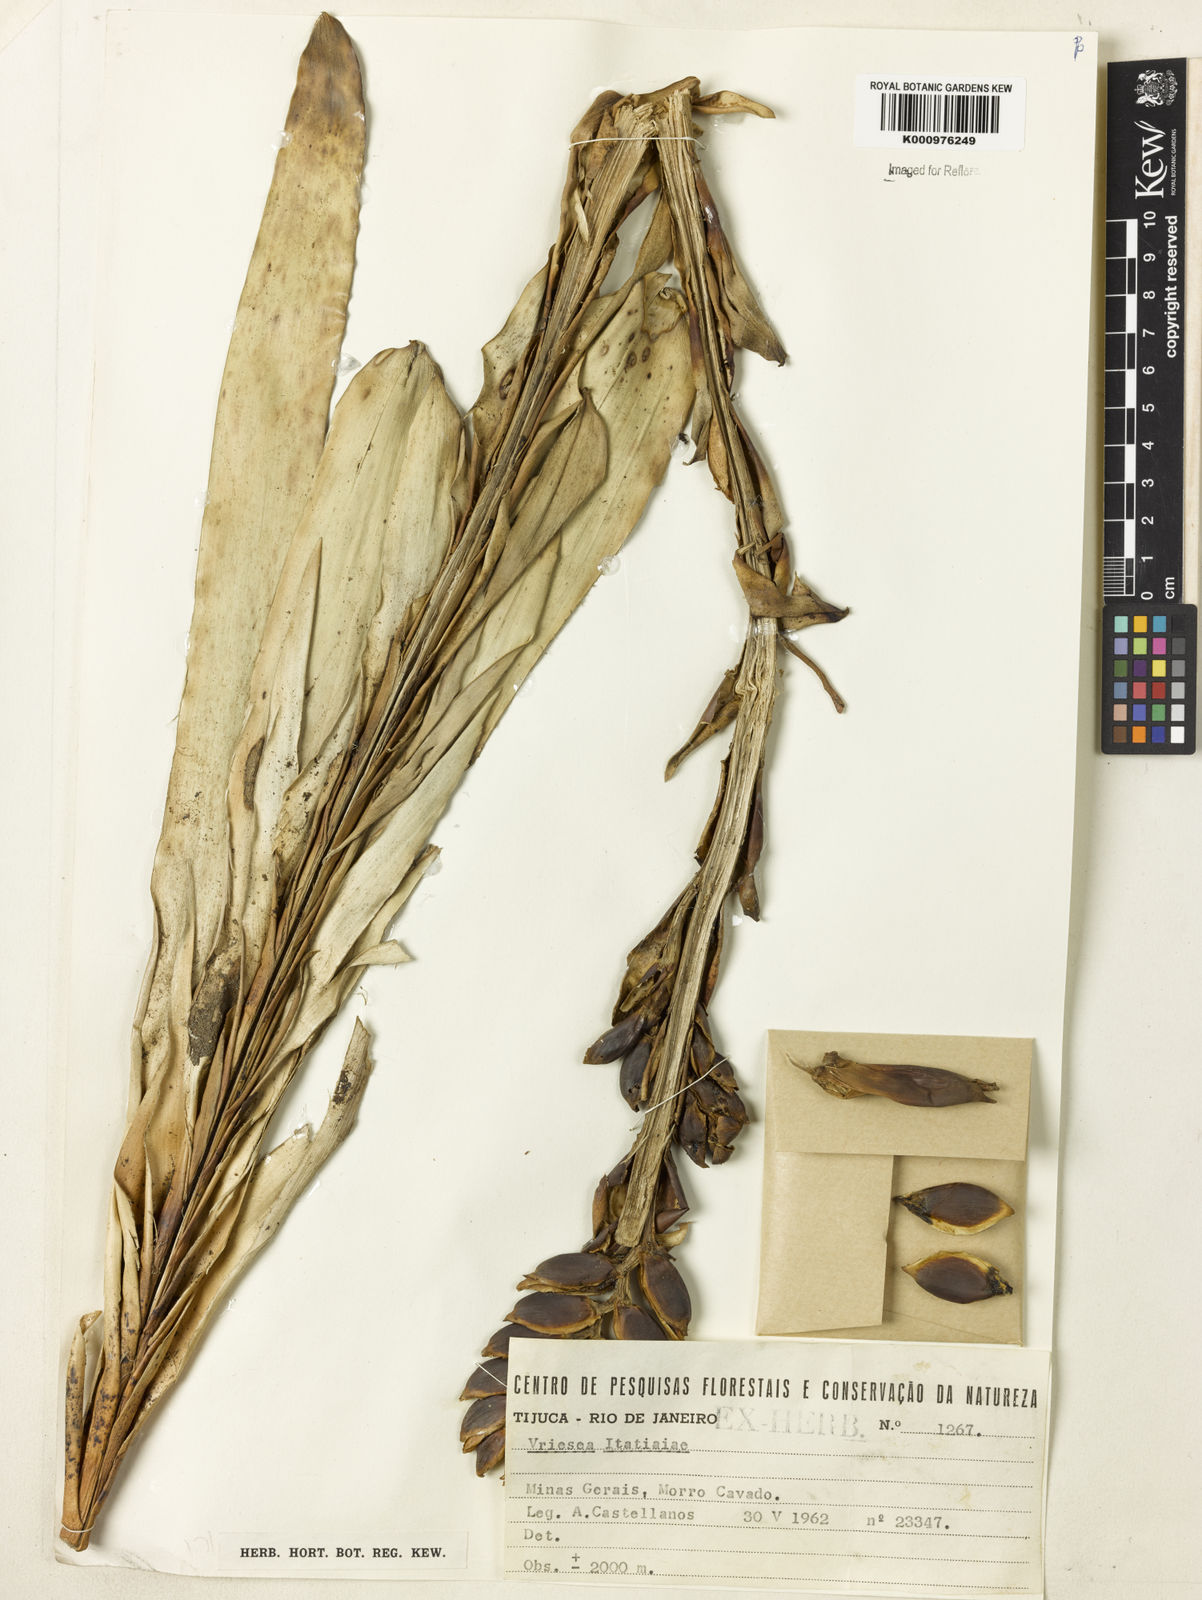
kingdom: Plantae
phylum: Tracheophyta
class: Liliopsida
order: Poales
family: Bromeliaceae
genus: Vriesea
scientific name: Vriesea itatiaiae
